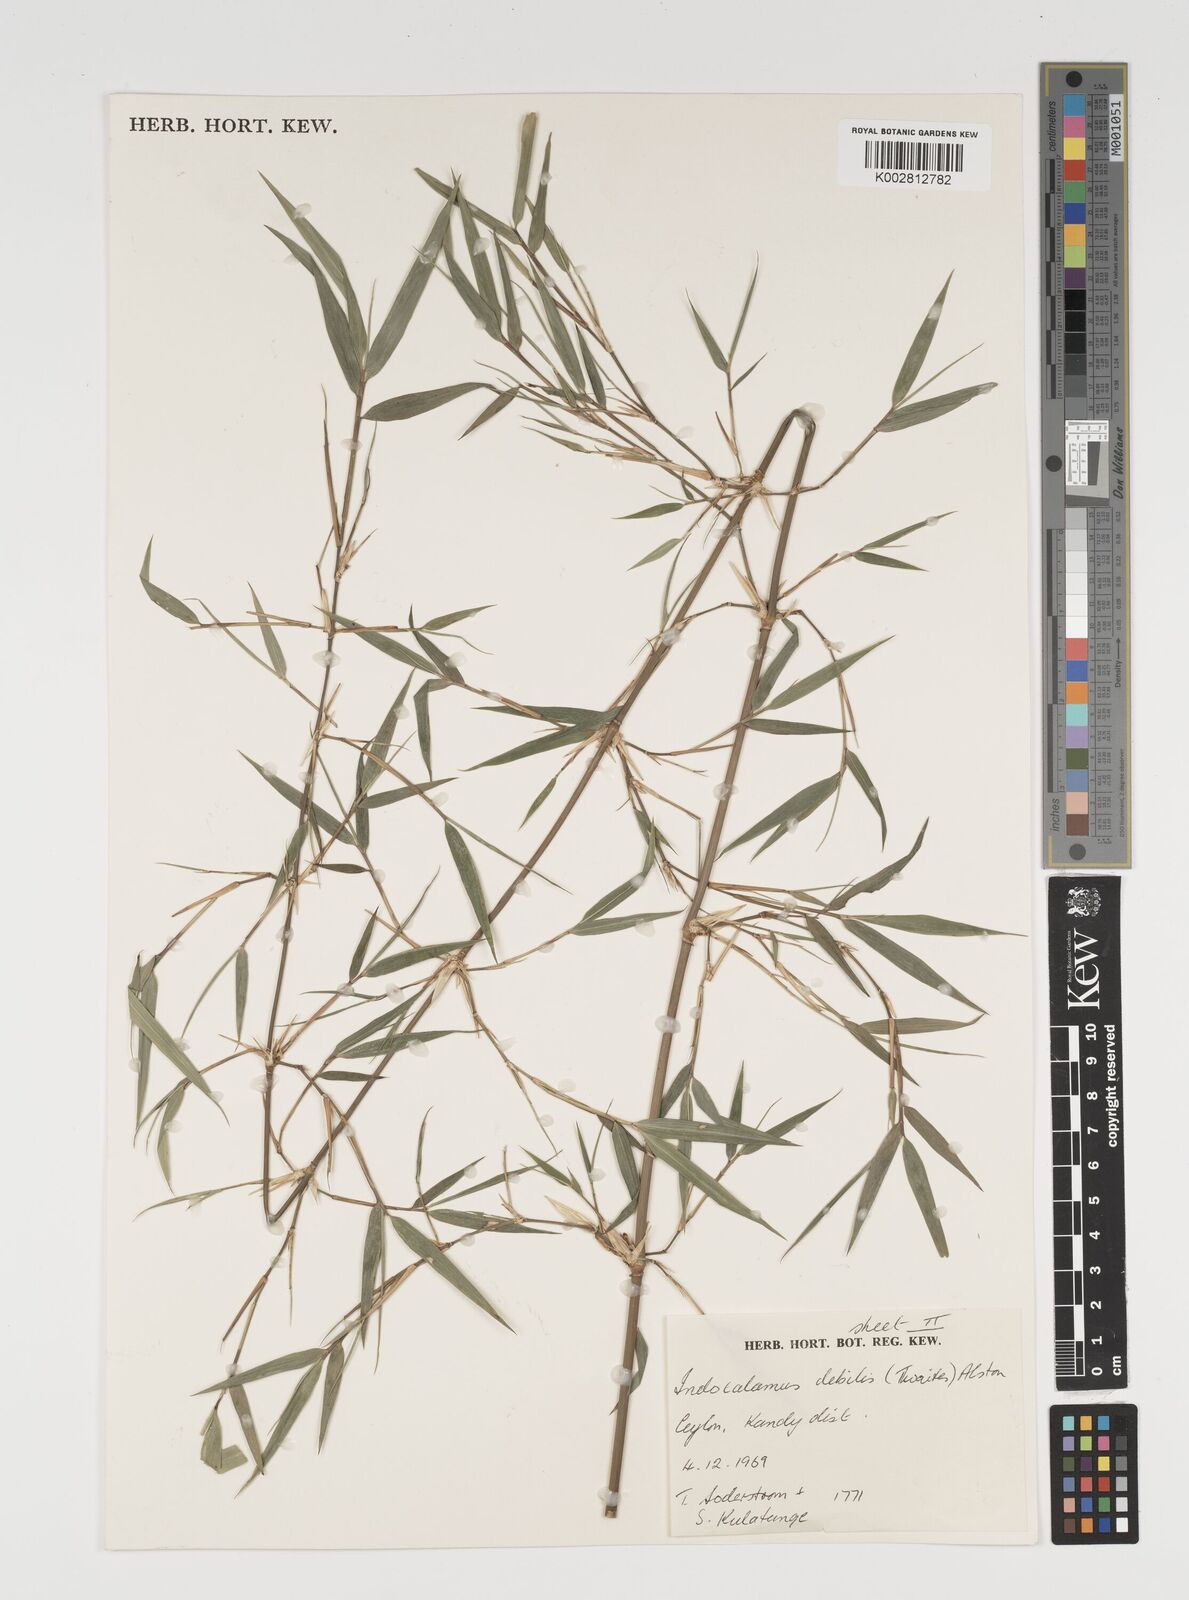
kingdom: Plantae
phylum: Tracheophyta
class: Liliopsida
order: Poales
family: Poaceae
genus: Kuruna
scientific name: Kuruna debilis
